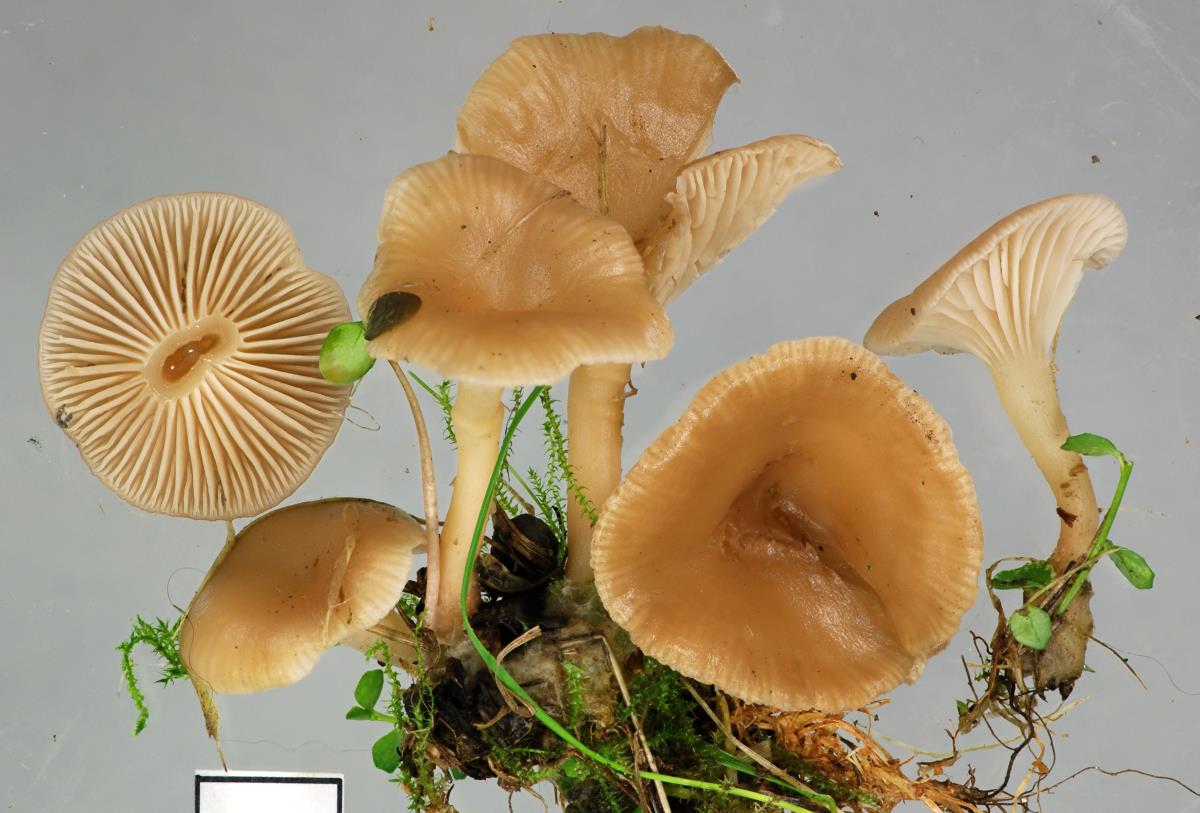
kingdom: Fungi
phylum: Basidiomycota
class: Agaricomycetes
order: Agaricales
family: Tricholomataceae
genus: Singerocybe
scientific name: Singerocybe clitocyboides
